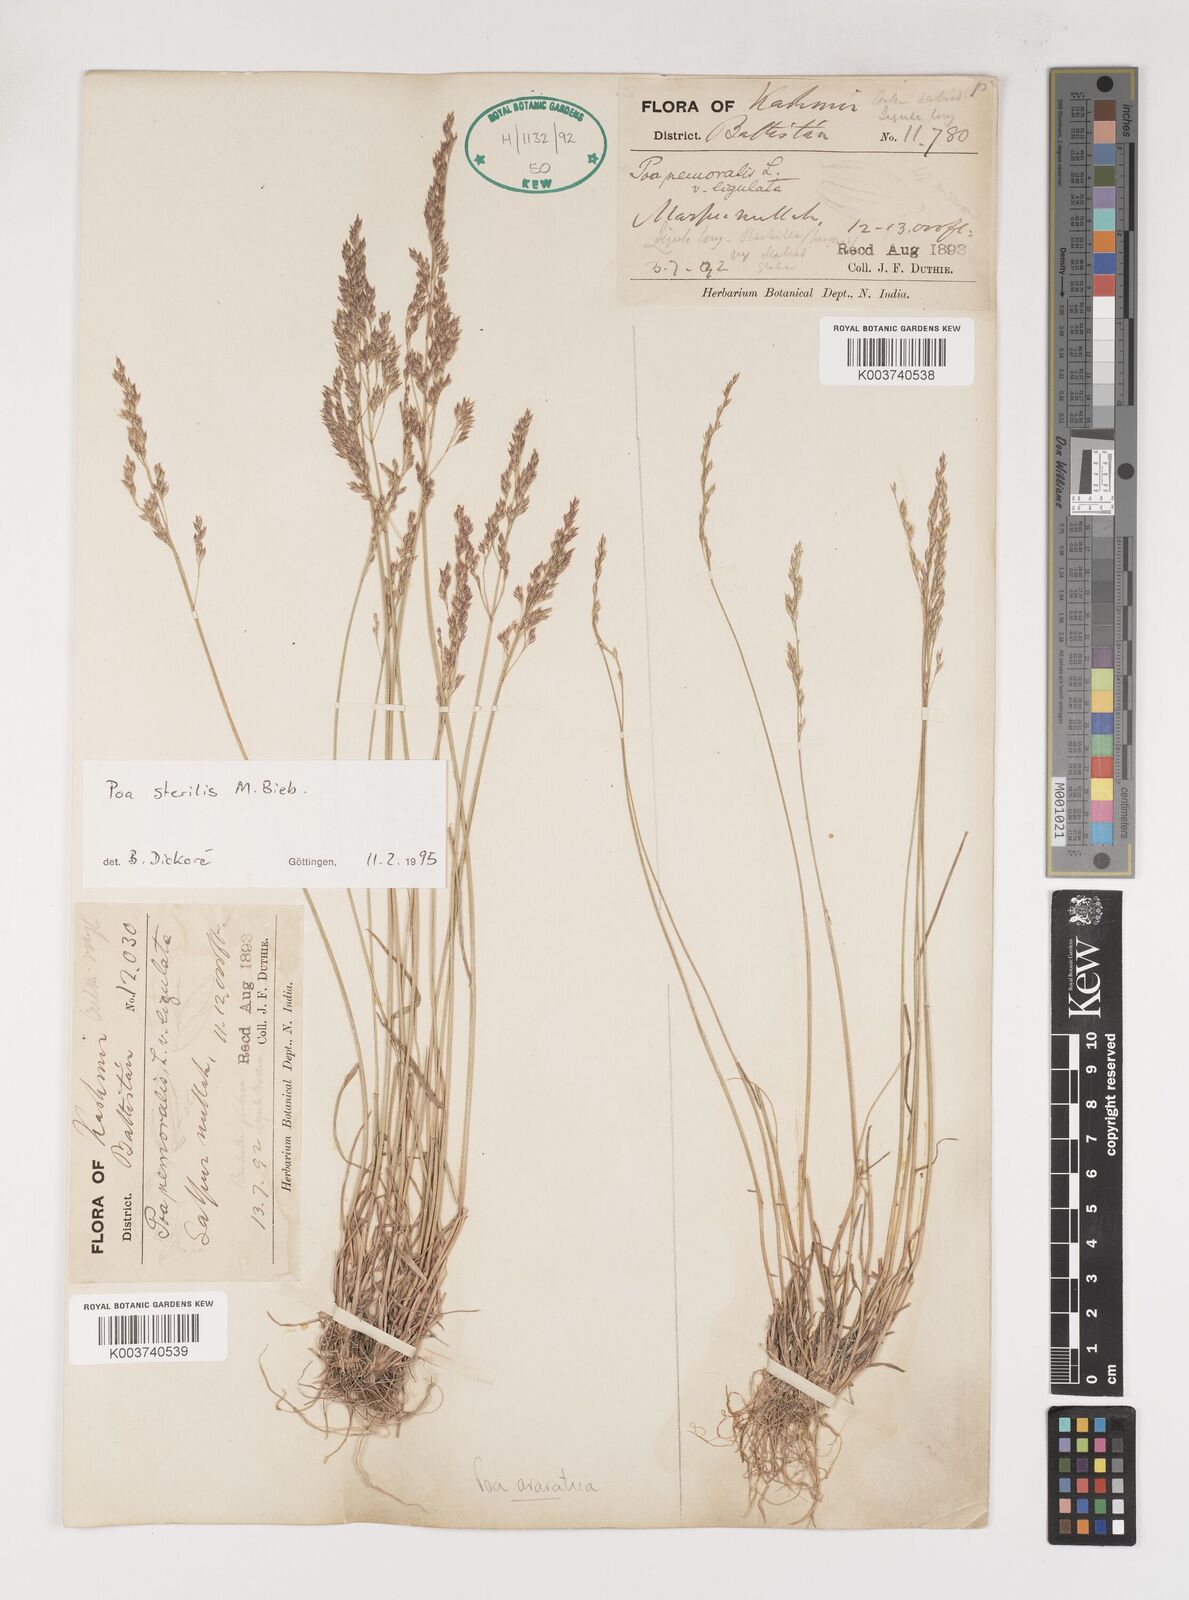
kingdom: Plantae
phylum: Tracheophyta
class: Liliopsida
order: Poales
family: Poaceae
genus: Poa
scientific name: Poa sterilis
